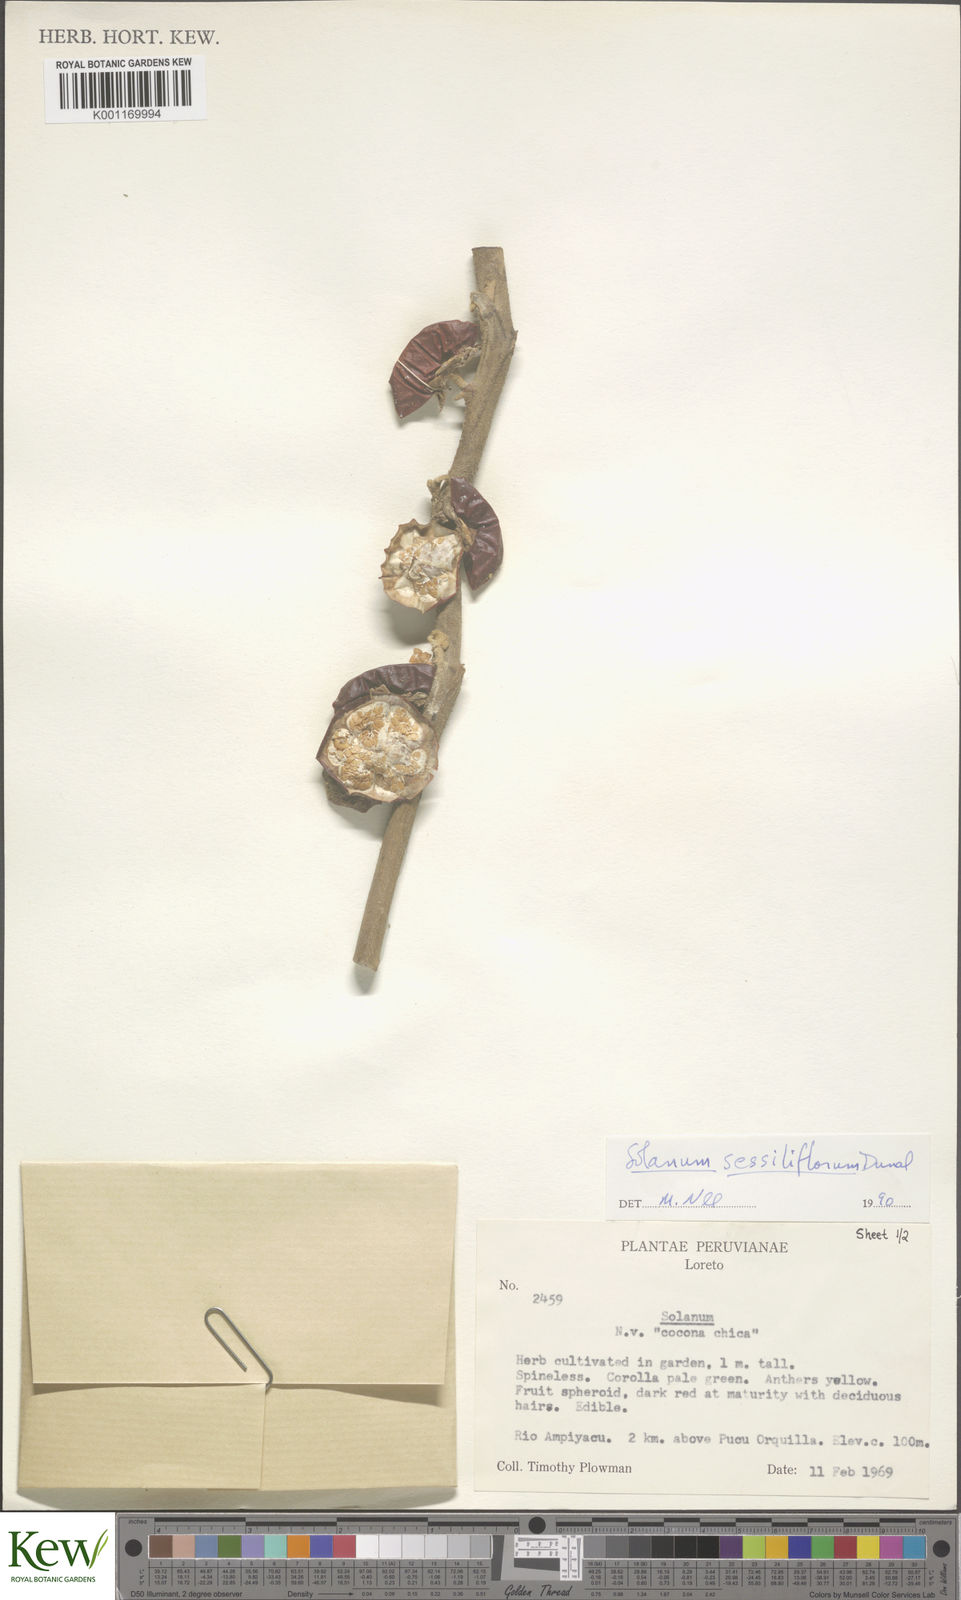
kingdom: Plantae
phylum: Tracheophyta
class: Magnoliopsida
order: Solanales
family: Solanaceae
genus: Solanum
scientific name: Solanum sessiliflorum
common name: Orinoco-apple
